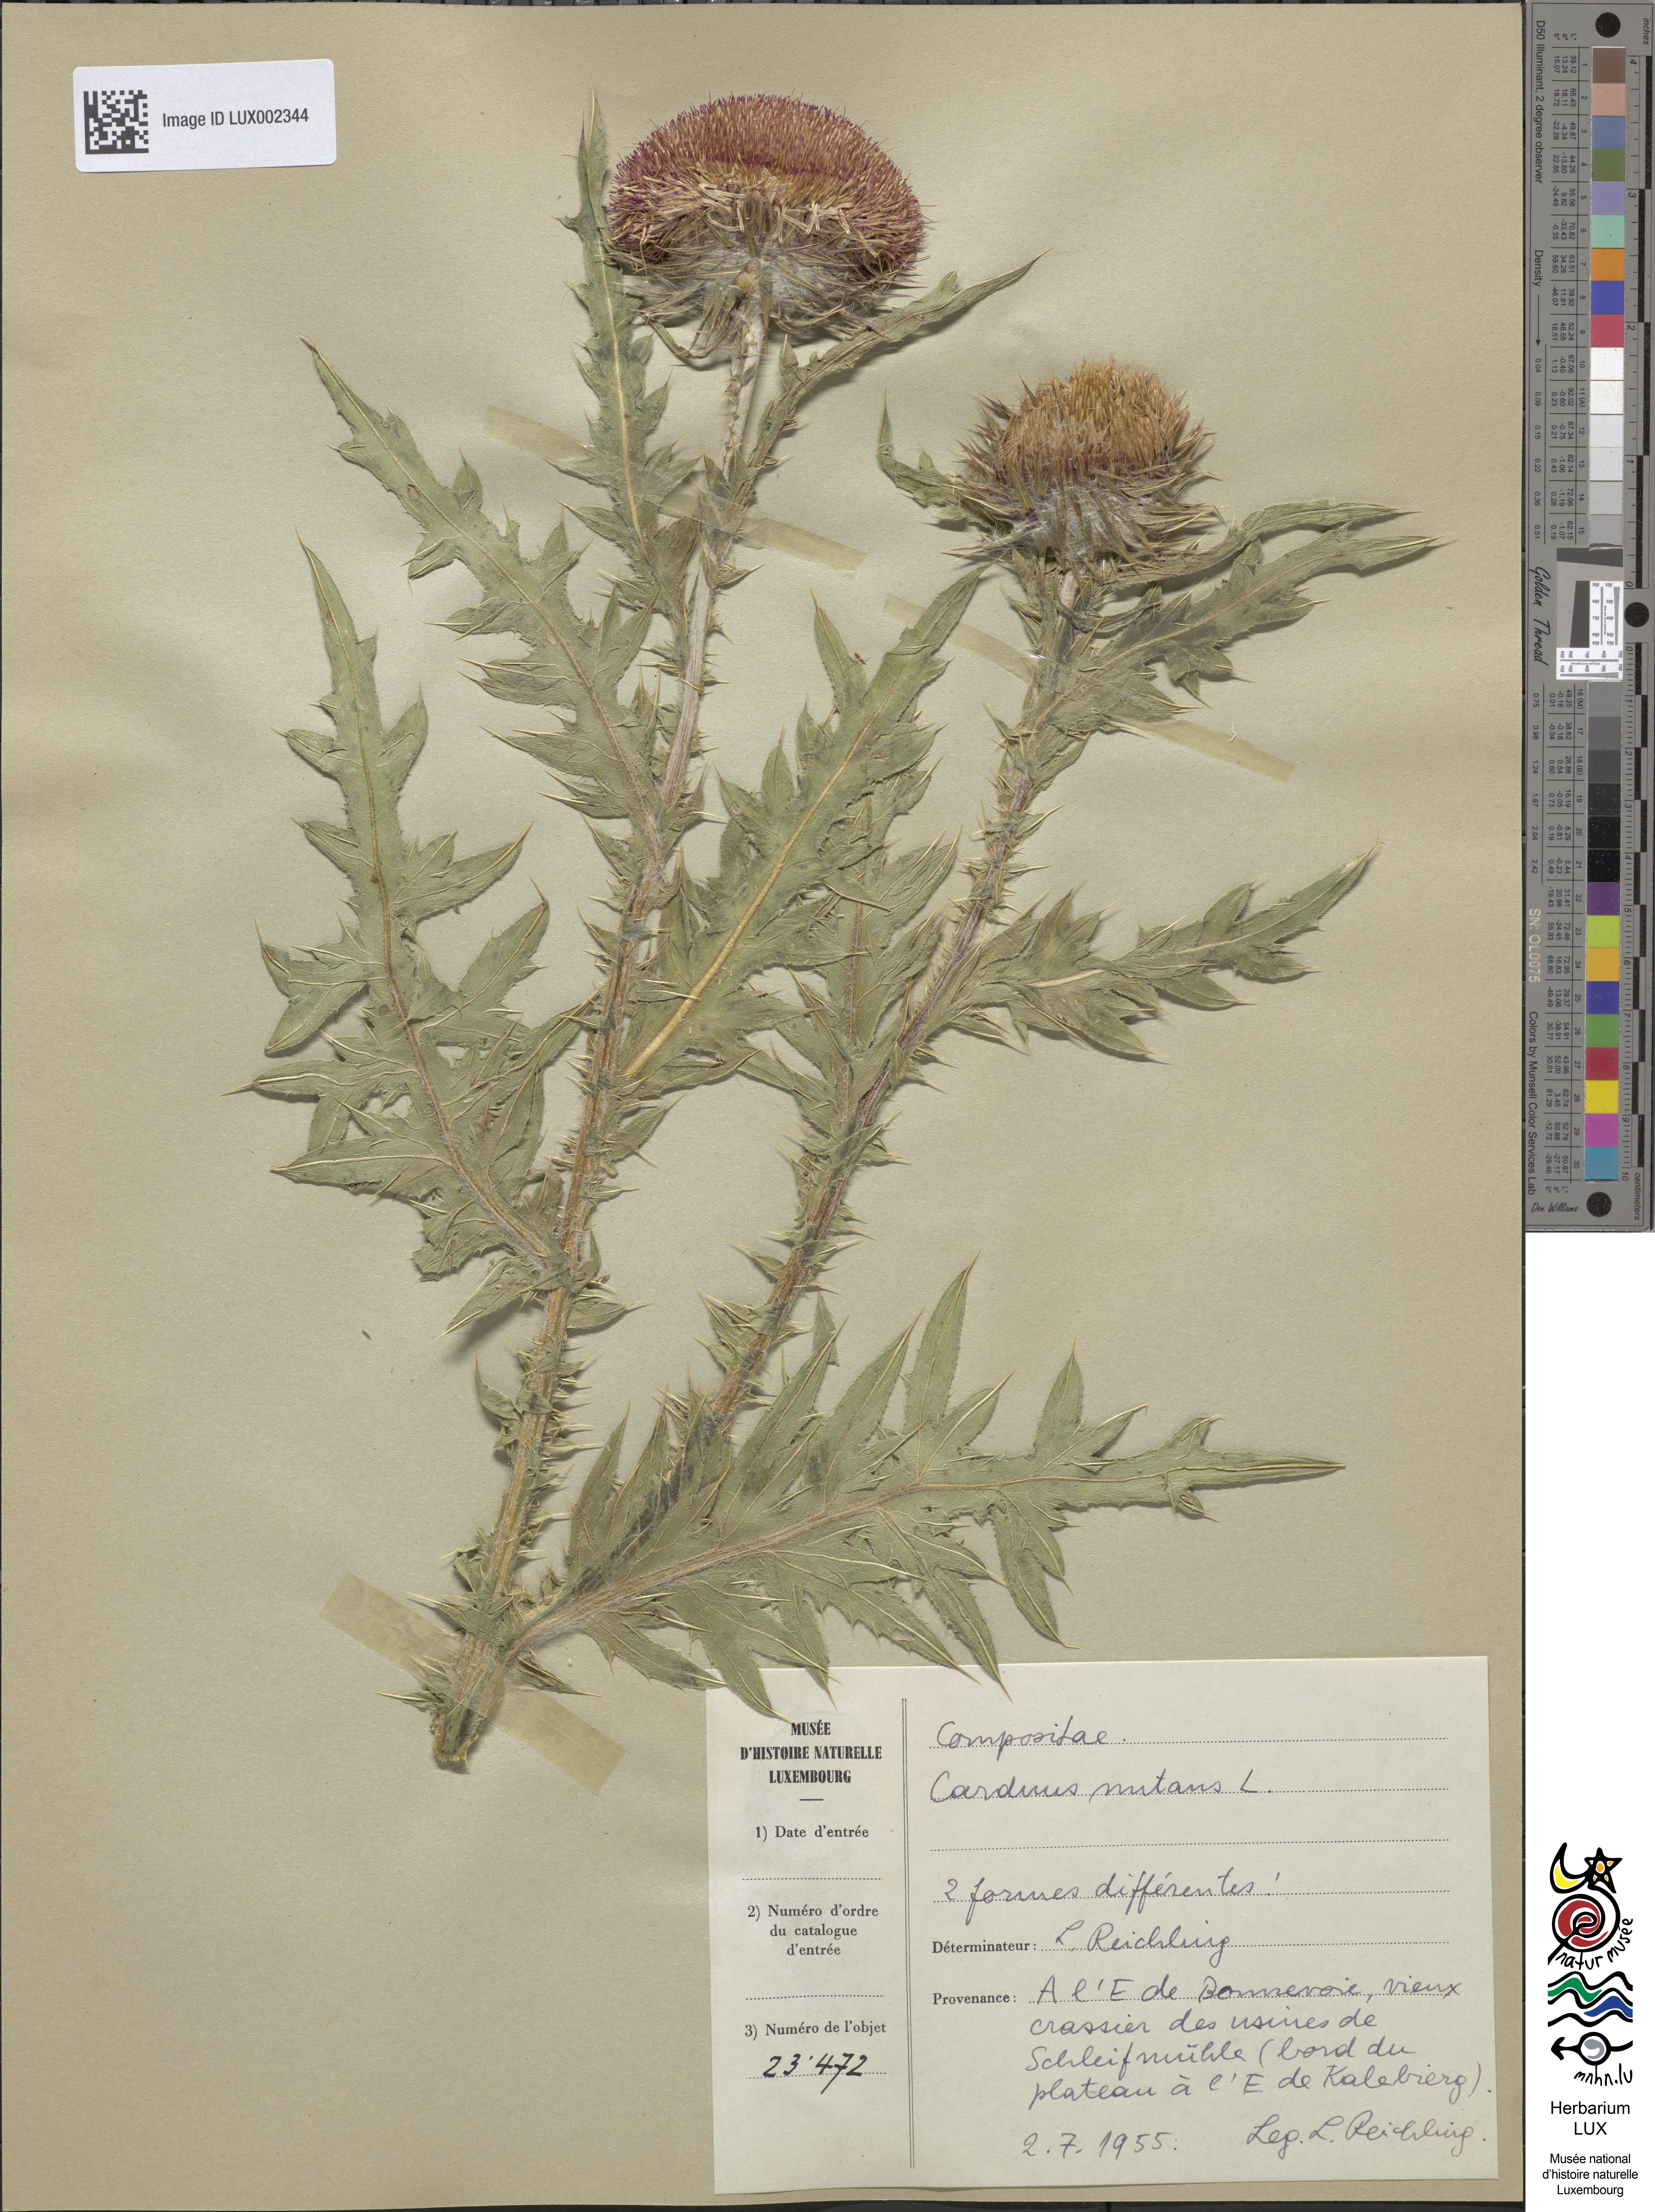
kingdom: Plantae
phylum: Tracheophyta
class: Magnoliopsida
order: Asterales
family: Asteraceae
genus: Carduus
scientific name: Carduus nutans
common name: Musk thistle
